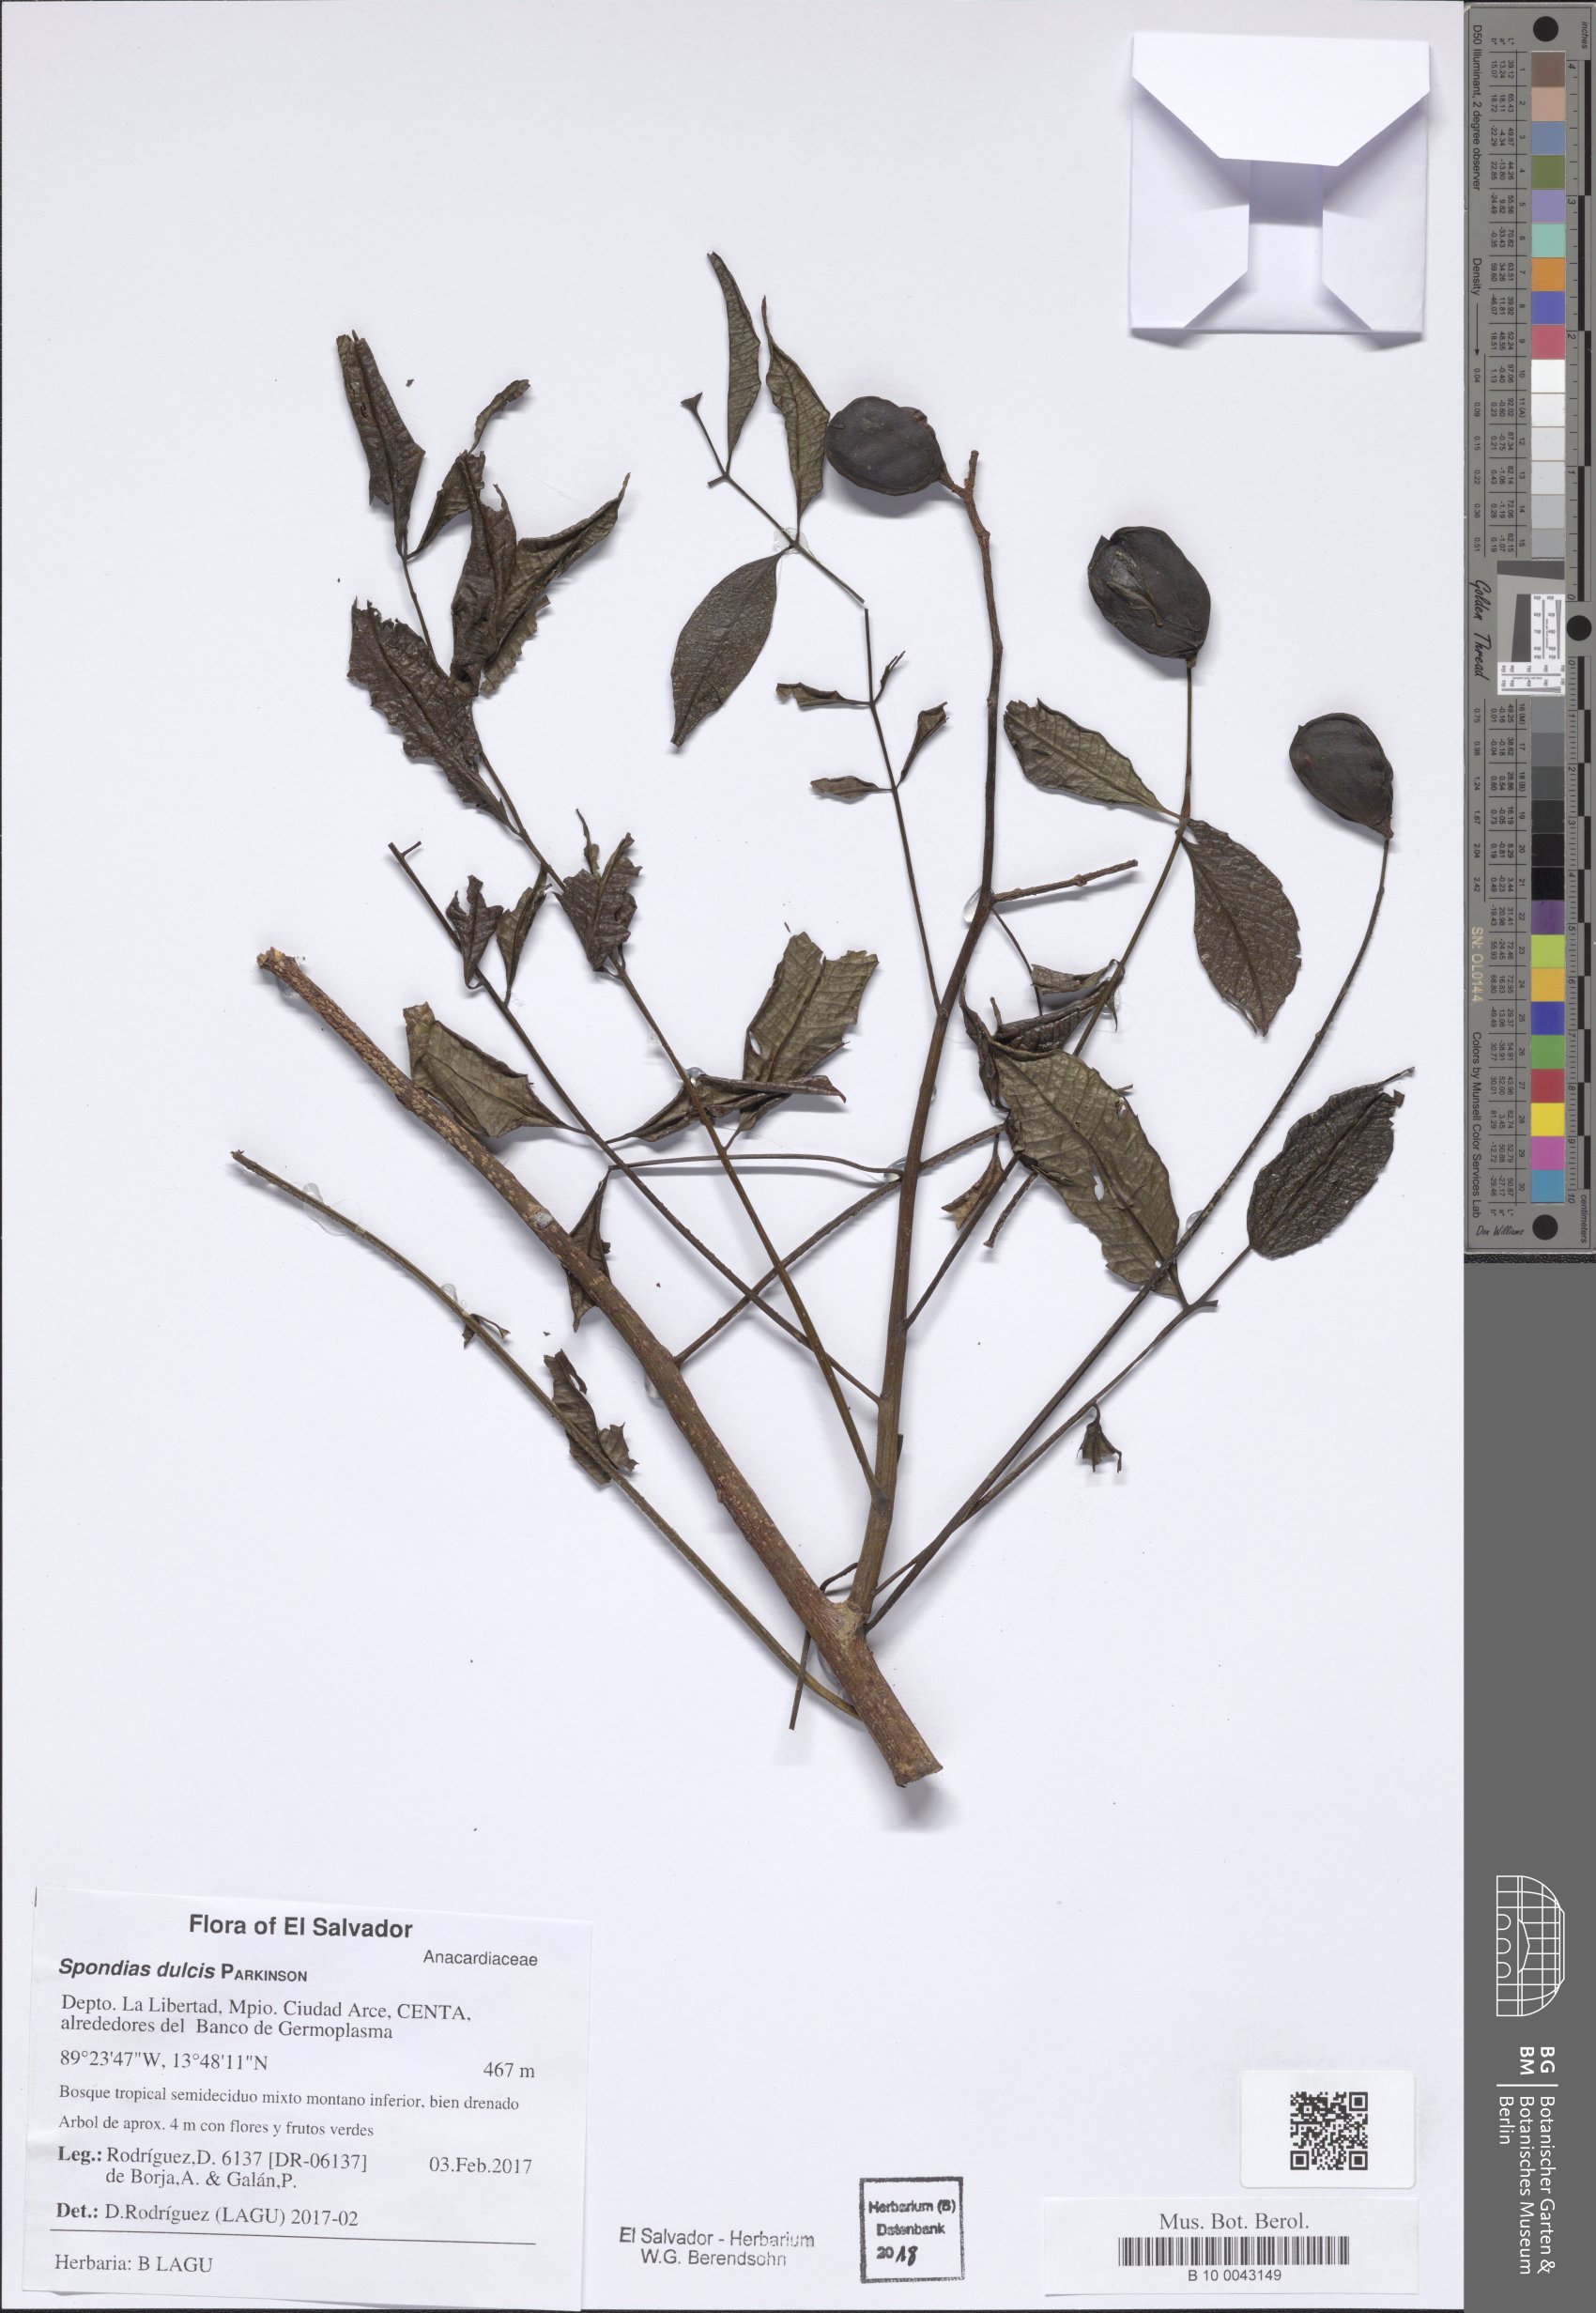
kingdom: Plantae
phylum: Tracheophyta
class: Magnoliopsida
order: Sapindales
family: Anacardiaceae
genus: Spondias
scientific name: Spondias dulcis
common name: Ambarella
